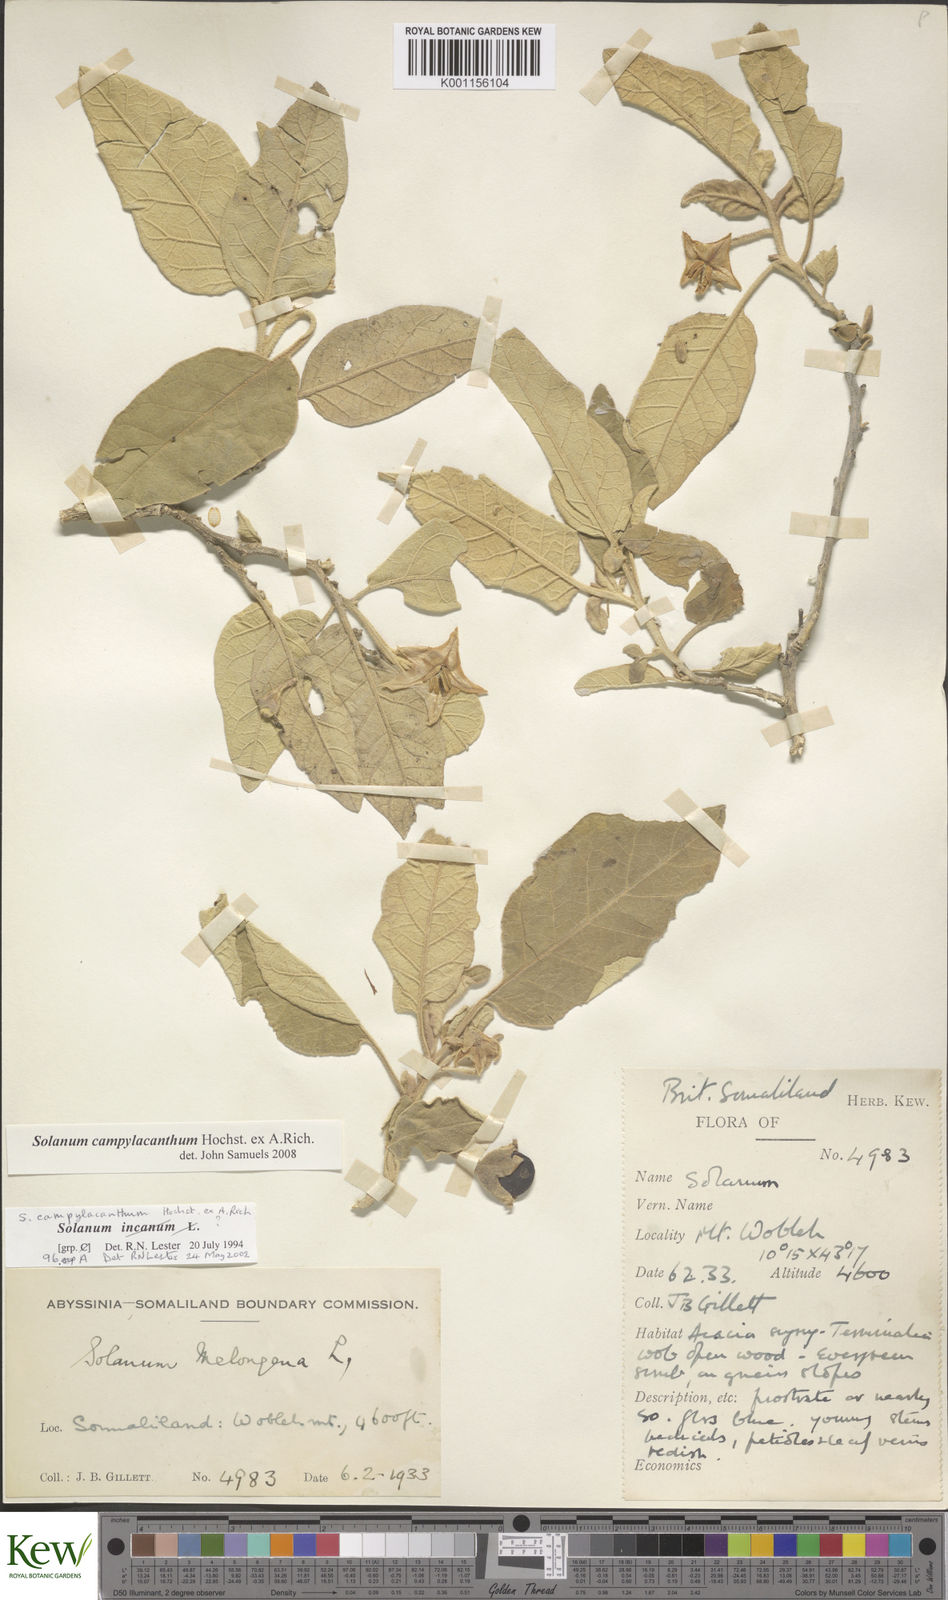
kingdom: Plantae
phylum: Tracheophyta
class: Magnoliopsida
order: Solanales
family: Solanaceae
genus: Solanum
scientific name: Solanum campylacanthum
